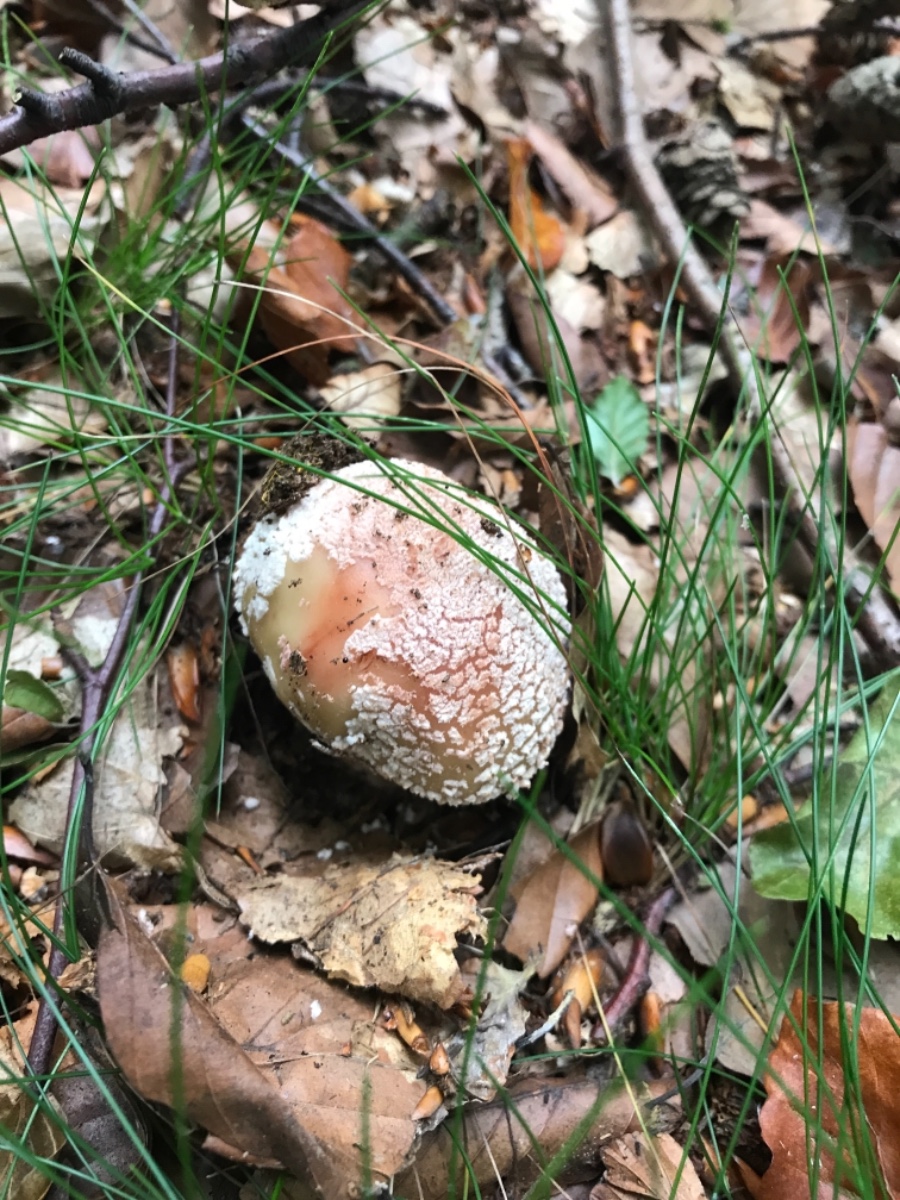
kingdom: Fungi
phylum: Basidiomycota
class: Agaricomycetes
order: Agaricales
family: Amanitaceae
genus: Amanita
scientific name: Amanita rubescens
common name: rødmende fluesvamp
